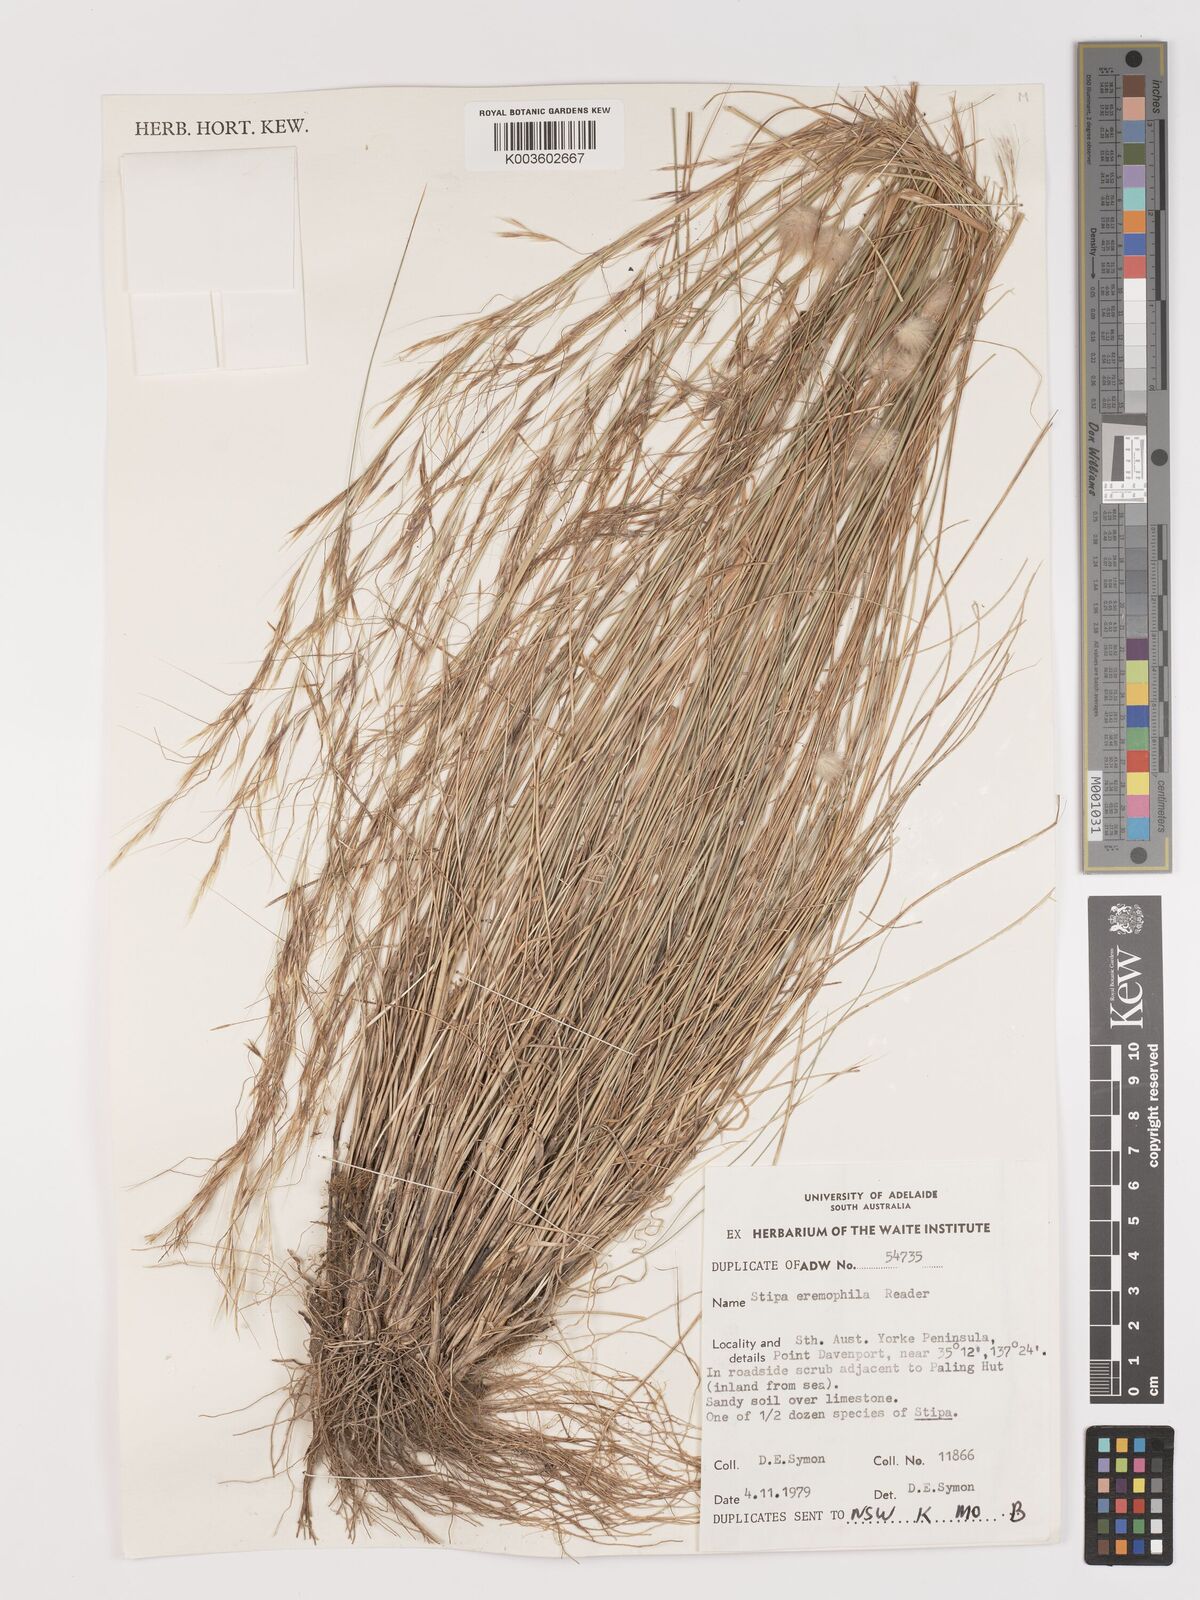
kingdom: Plantae
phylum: Tracheophyta
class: Liliopsida
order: Poales
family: Poaceae
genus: Austrostipa
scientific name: Austrostipa eremophila
